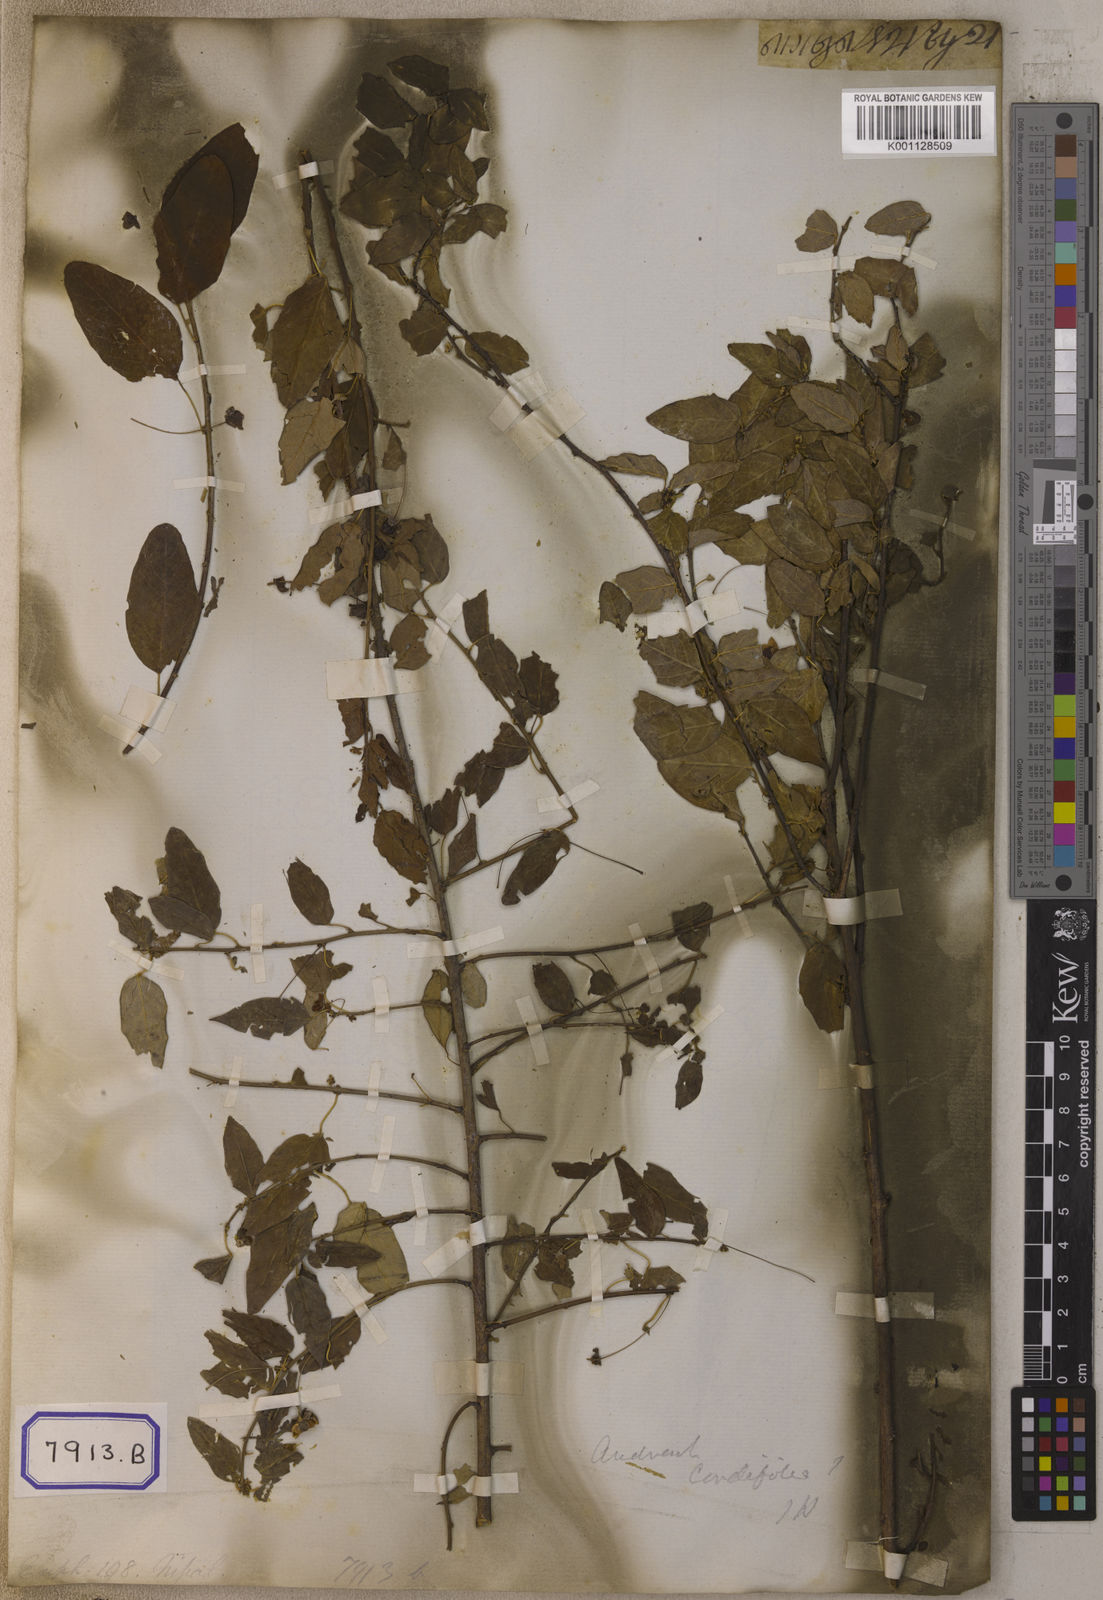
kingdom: Plantae
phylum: Tracheophyta
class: Magnoliopsida
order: Malpighiales
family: Euphorbiaceae
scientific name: Euphorbiaceae
